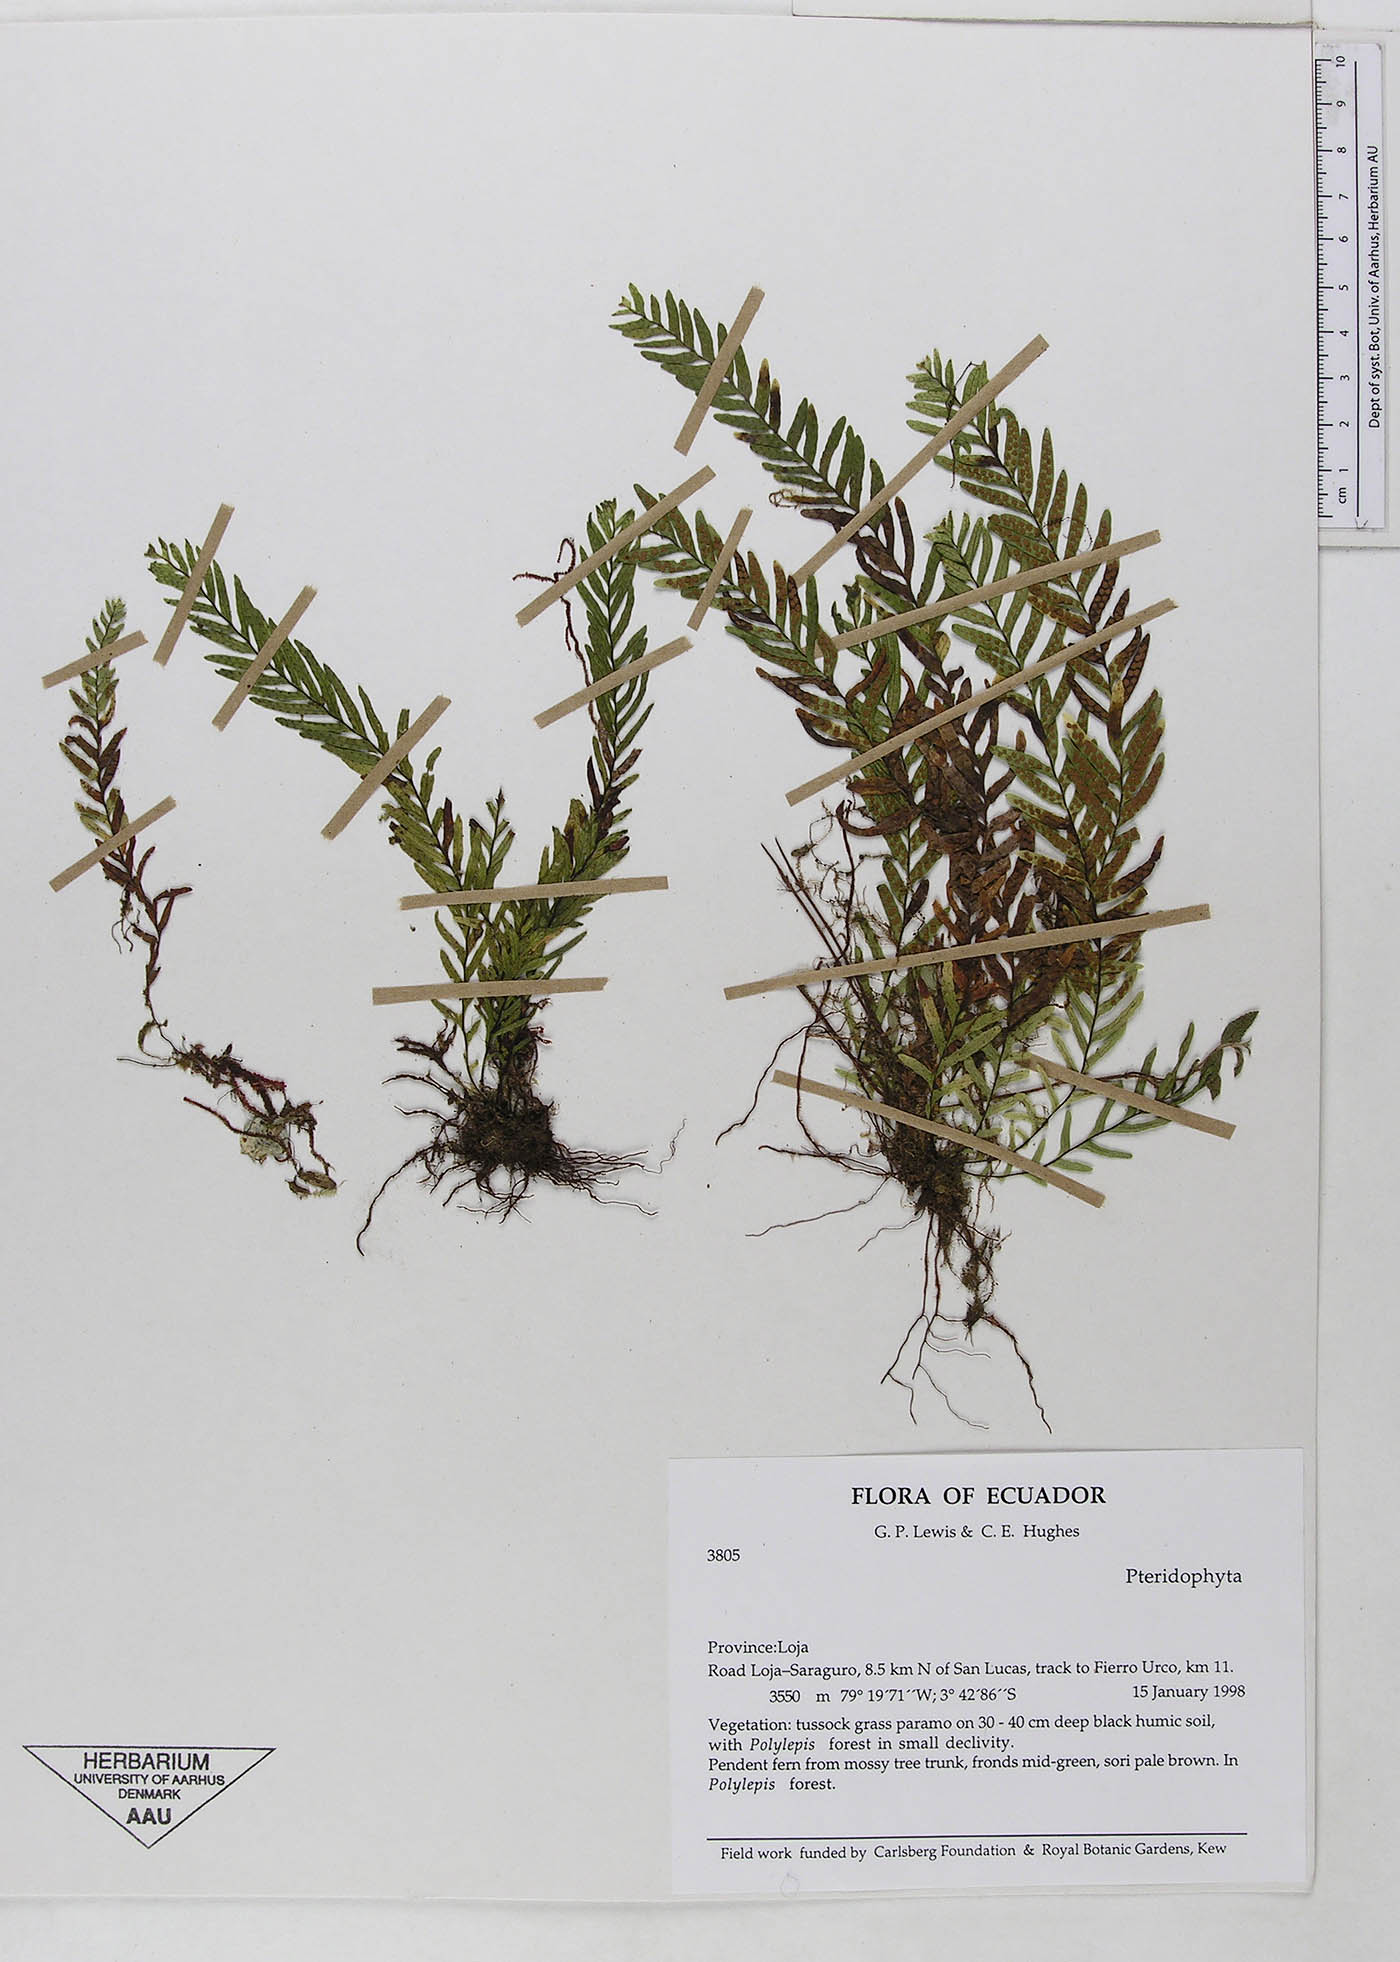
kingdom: Plantae
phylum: Tracheophyta
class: Polypodiopsida
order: Polypodiales
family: Polypodiaceae
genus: Lellingeria
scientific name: Lellingeria pseudocapillaris
